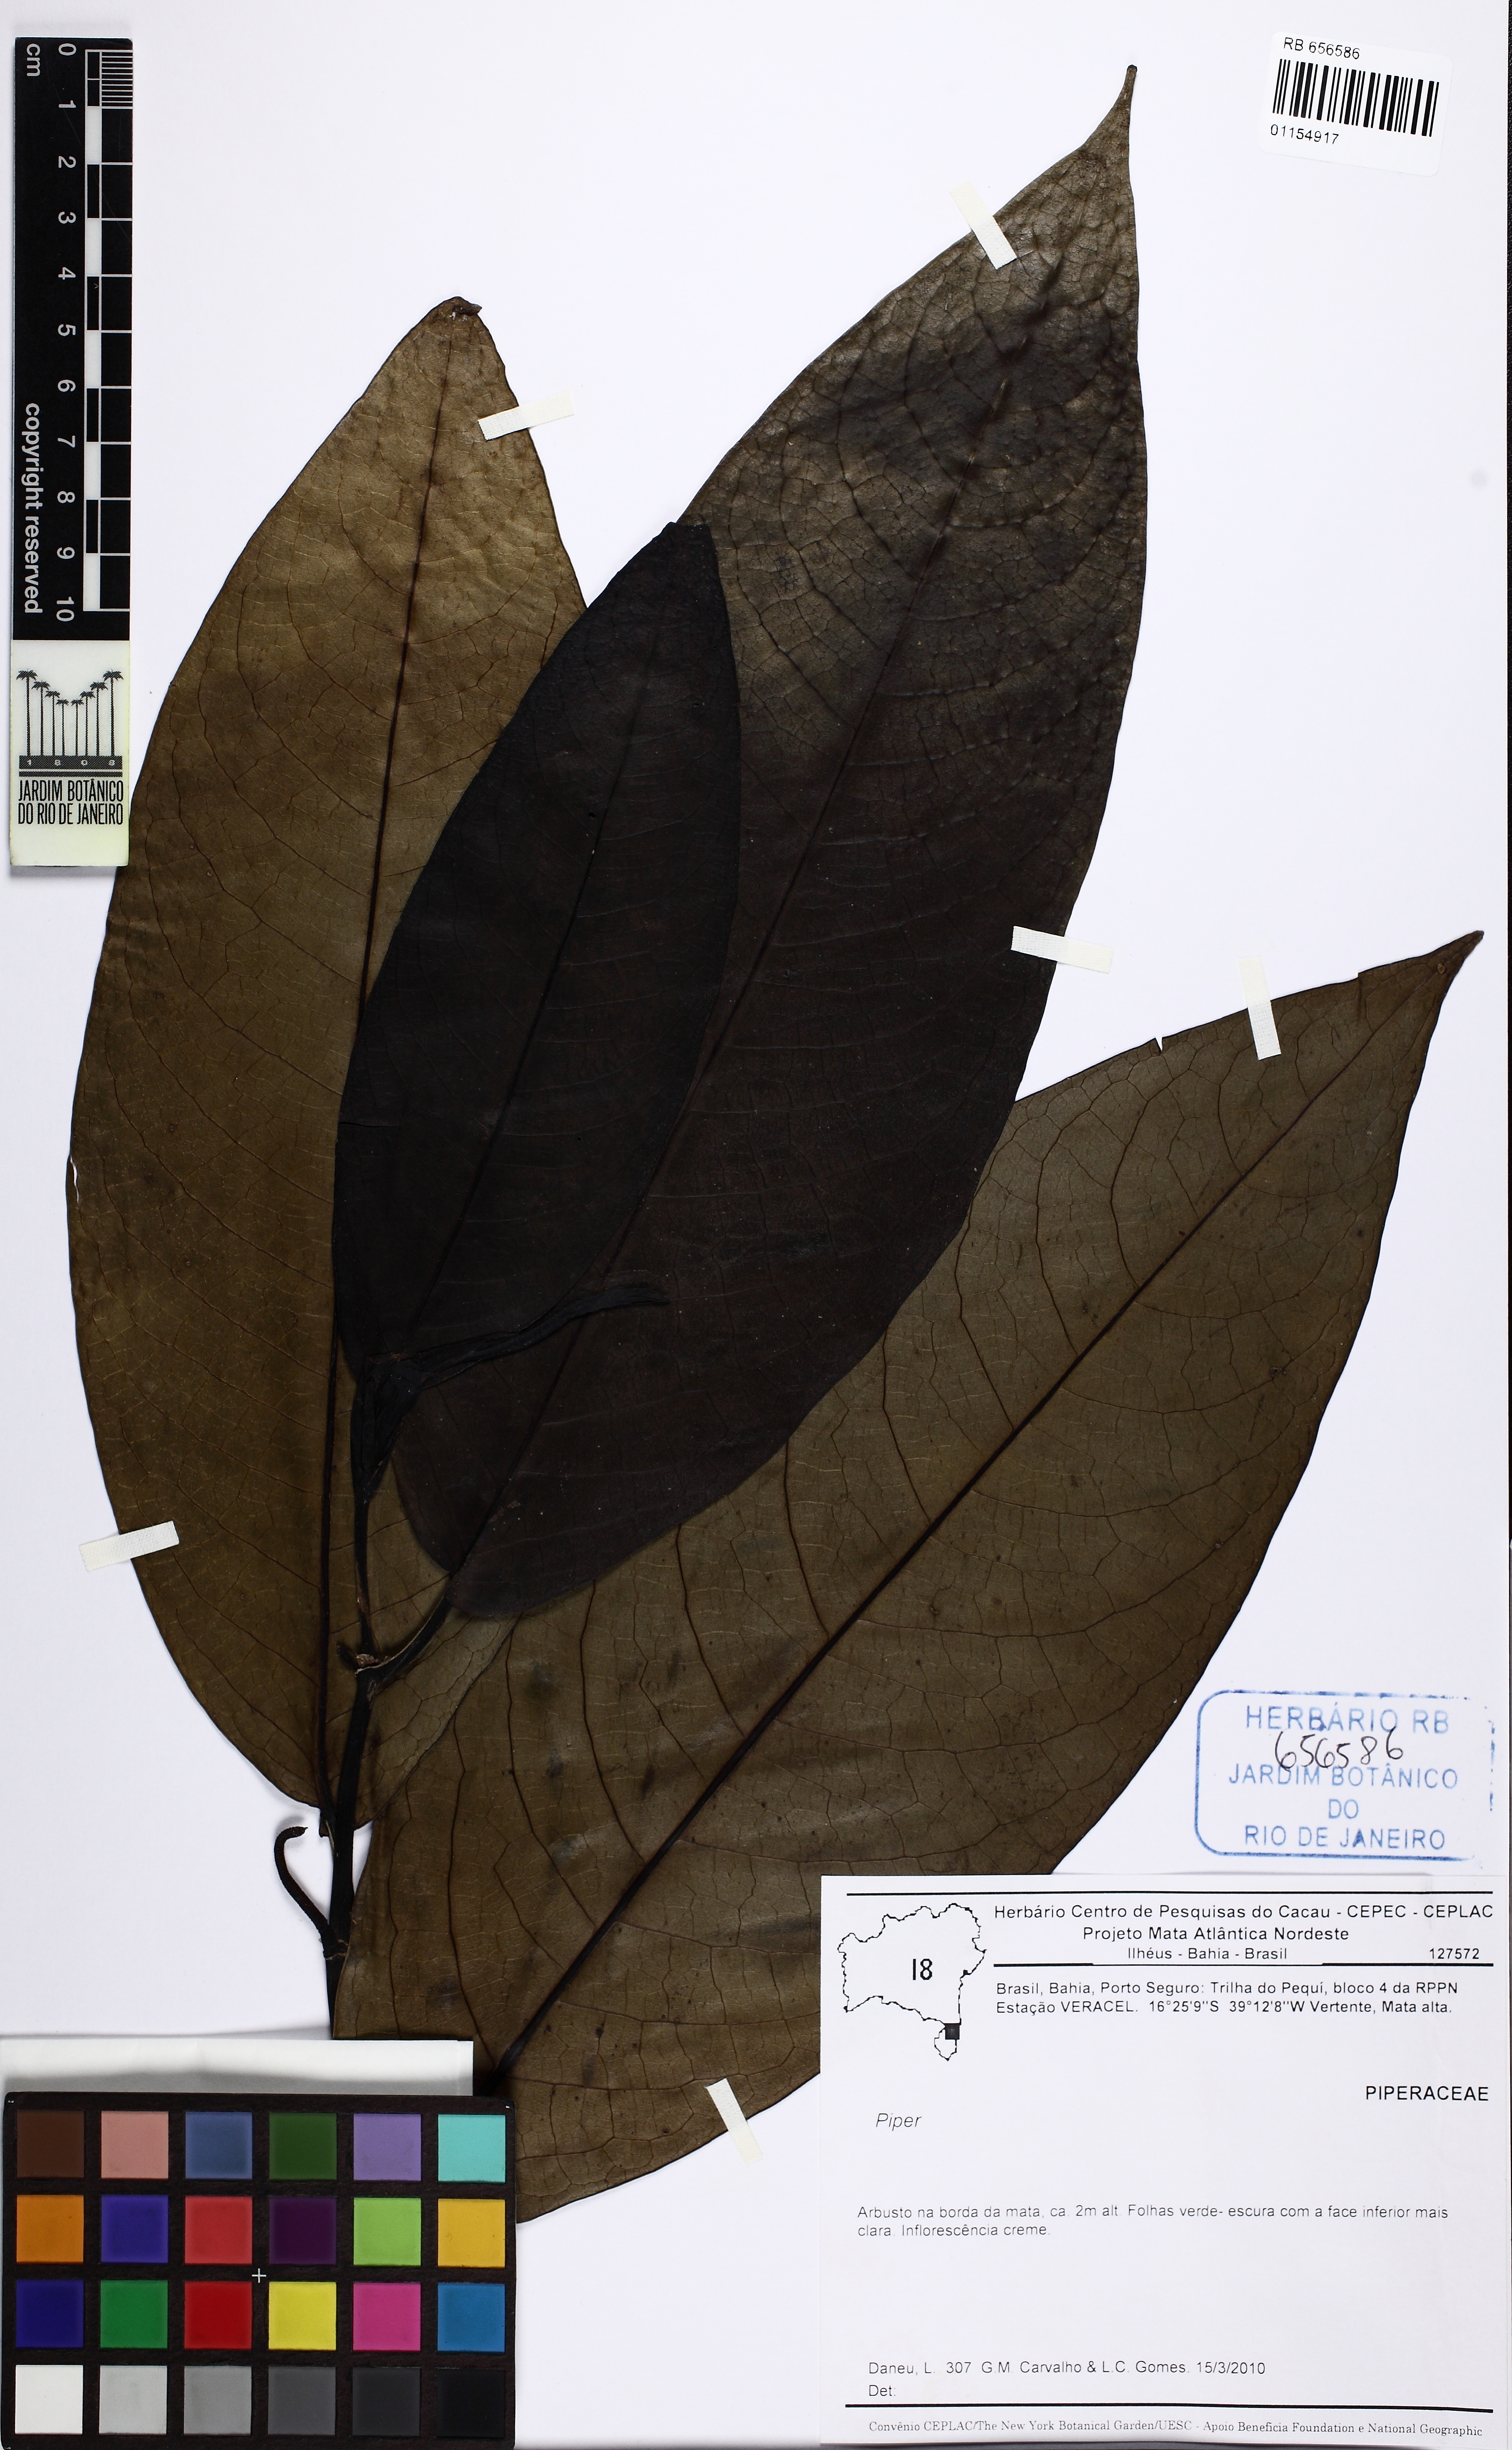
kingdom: Plantae
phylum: Tracheophyta
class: Magnoliopsida
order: Piperales
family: Piperaceae
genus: Piper
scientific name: Piper robustipedunculum
